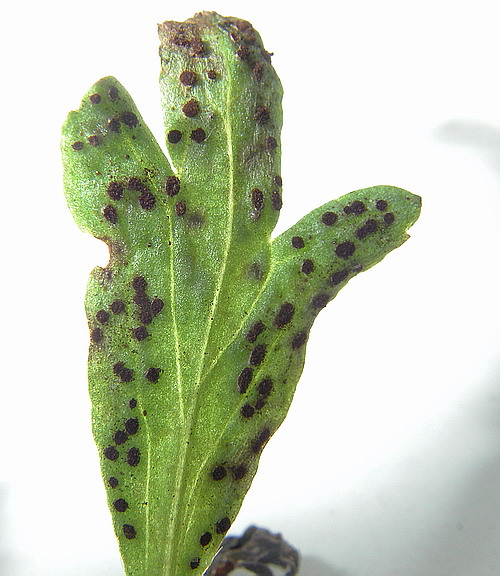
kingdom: Fungi
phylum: Basidiomycota
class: Pucciniomycetes
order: Pucciniales
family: Tranzscheliaceae
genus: Tranzschelia
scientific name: Tranzschelia anemones
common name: anemone-knæksporerust
